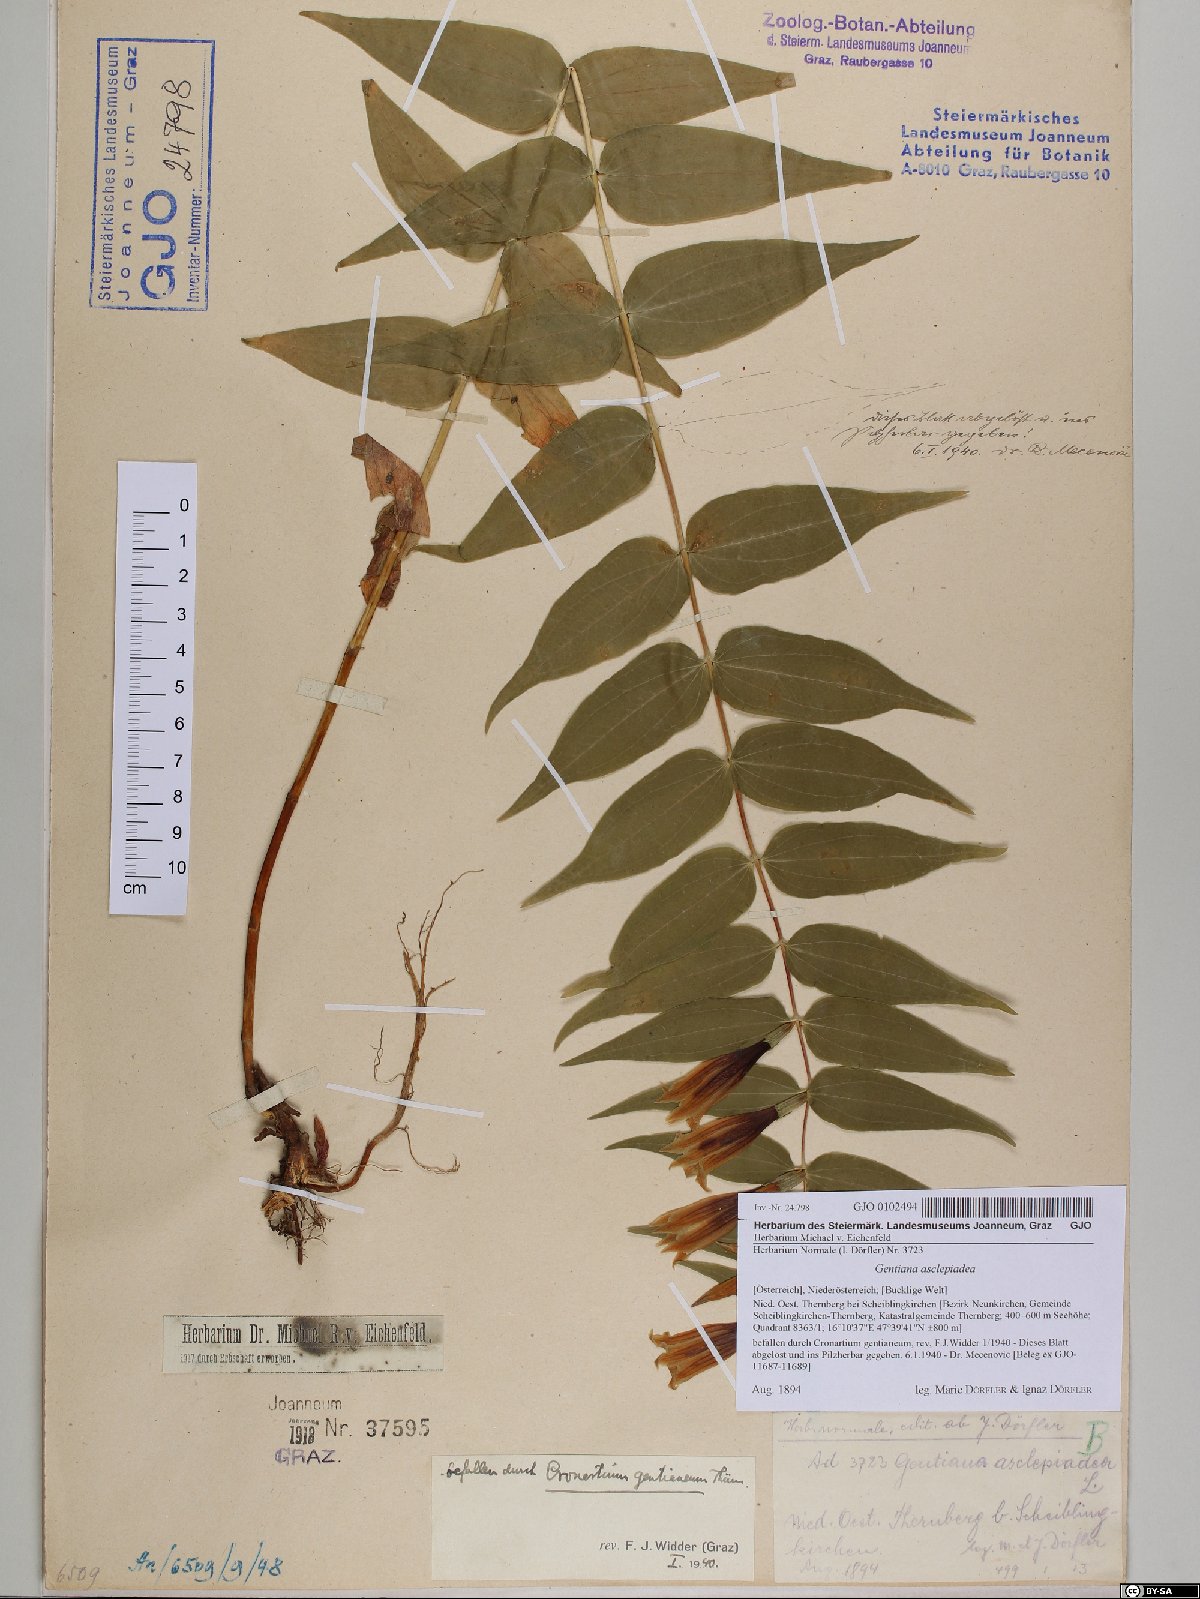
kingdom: Plantae
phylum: Tracheophyta
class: Magnoliopsida
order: Gentianales
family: Gentianaceae
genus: Gentiana
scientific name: Gentiana asclepiadea
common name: Willow gentian
